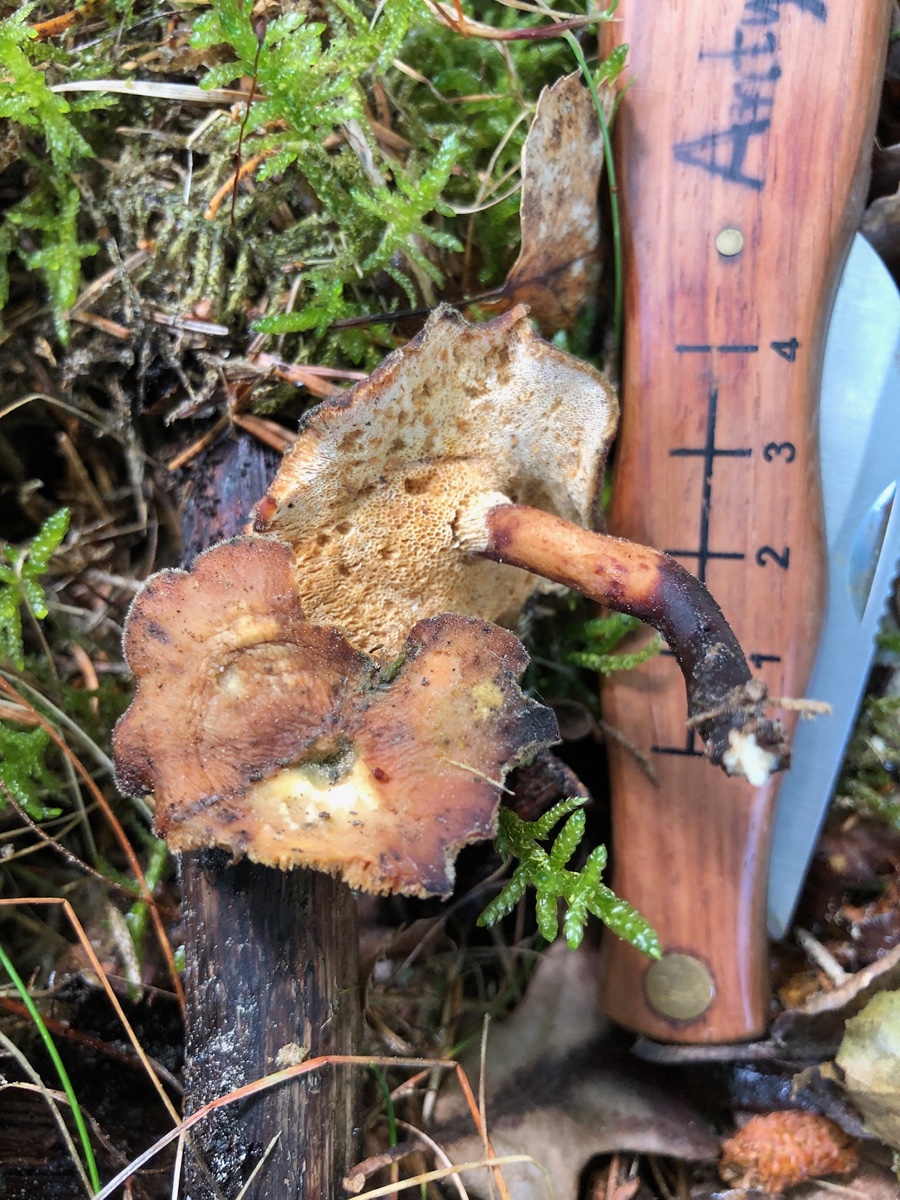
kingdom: Fungi
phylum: Basidiomycota
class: Agaricomycetes
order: Polyporales
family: Polyporaceae
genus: Cerioporus
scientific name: Cerioporus varius
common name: foranderlig stilkporesvamp
